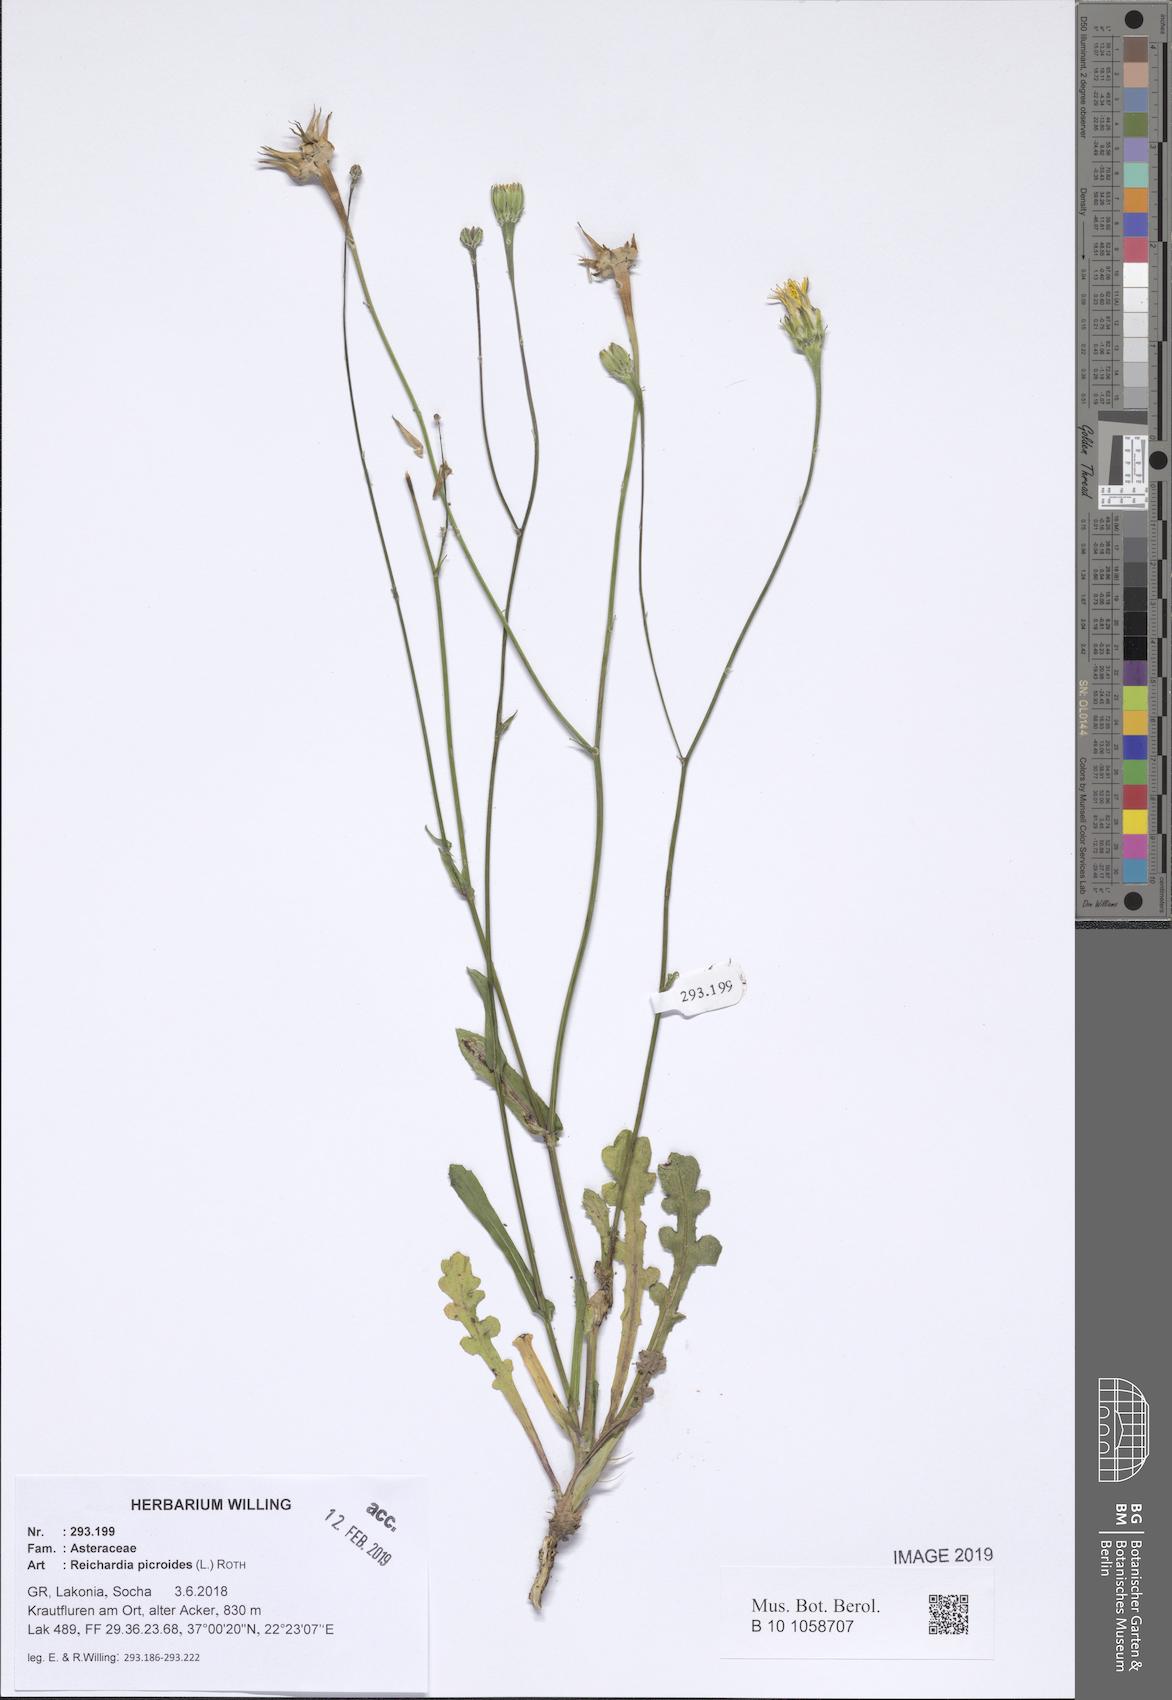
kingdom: Plantae
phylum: Tracheophyta
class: Magnoliopsida
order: Asterales
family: Asteraceae
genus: Reichardia
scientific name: Reichardia picroides
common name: Common brighteyes
